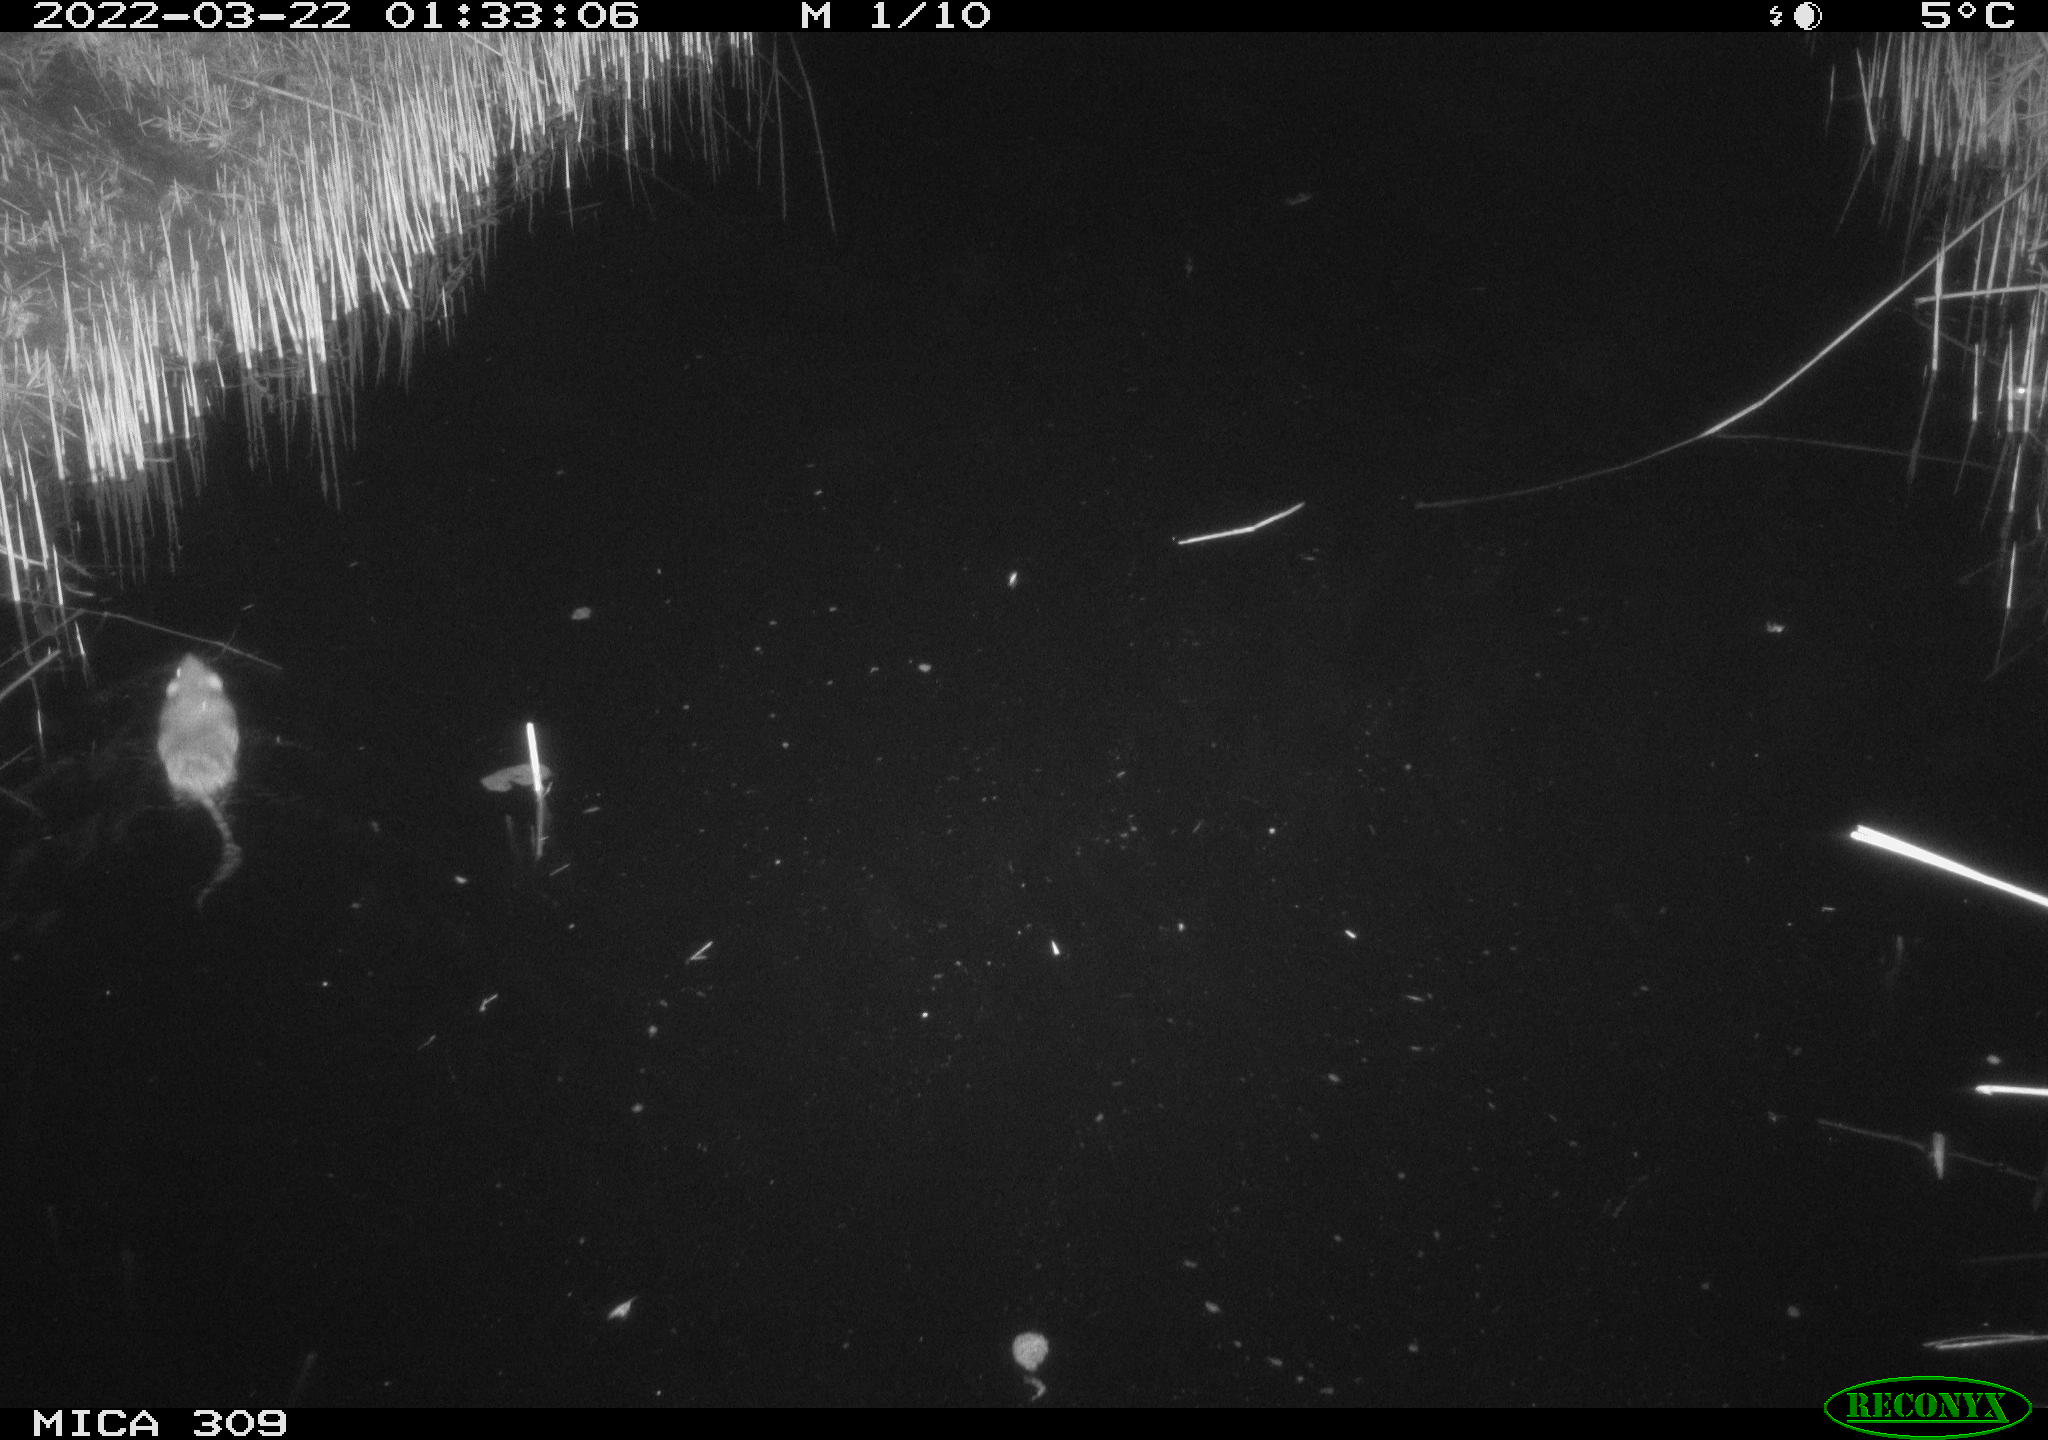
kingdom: Animalia
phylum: Chordata
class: Mammalia
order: Rodentia
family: Muridae
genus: Rattus
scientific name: Rattus norvegicus
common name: Brown rat
